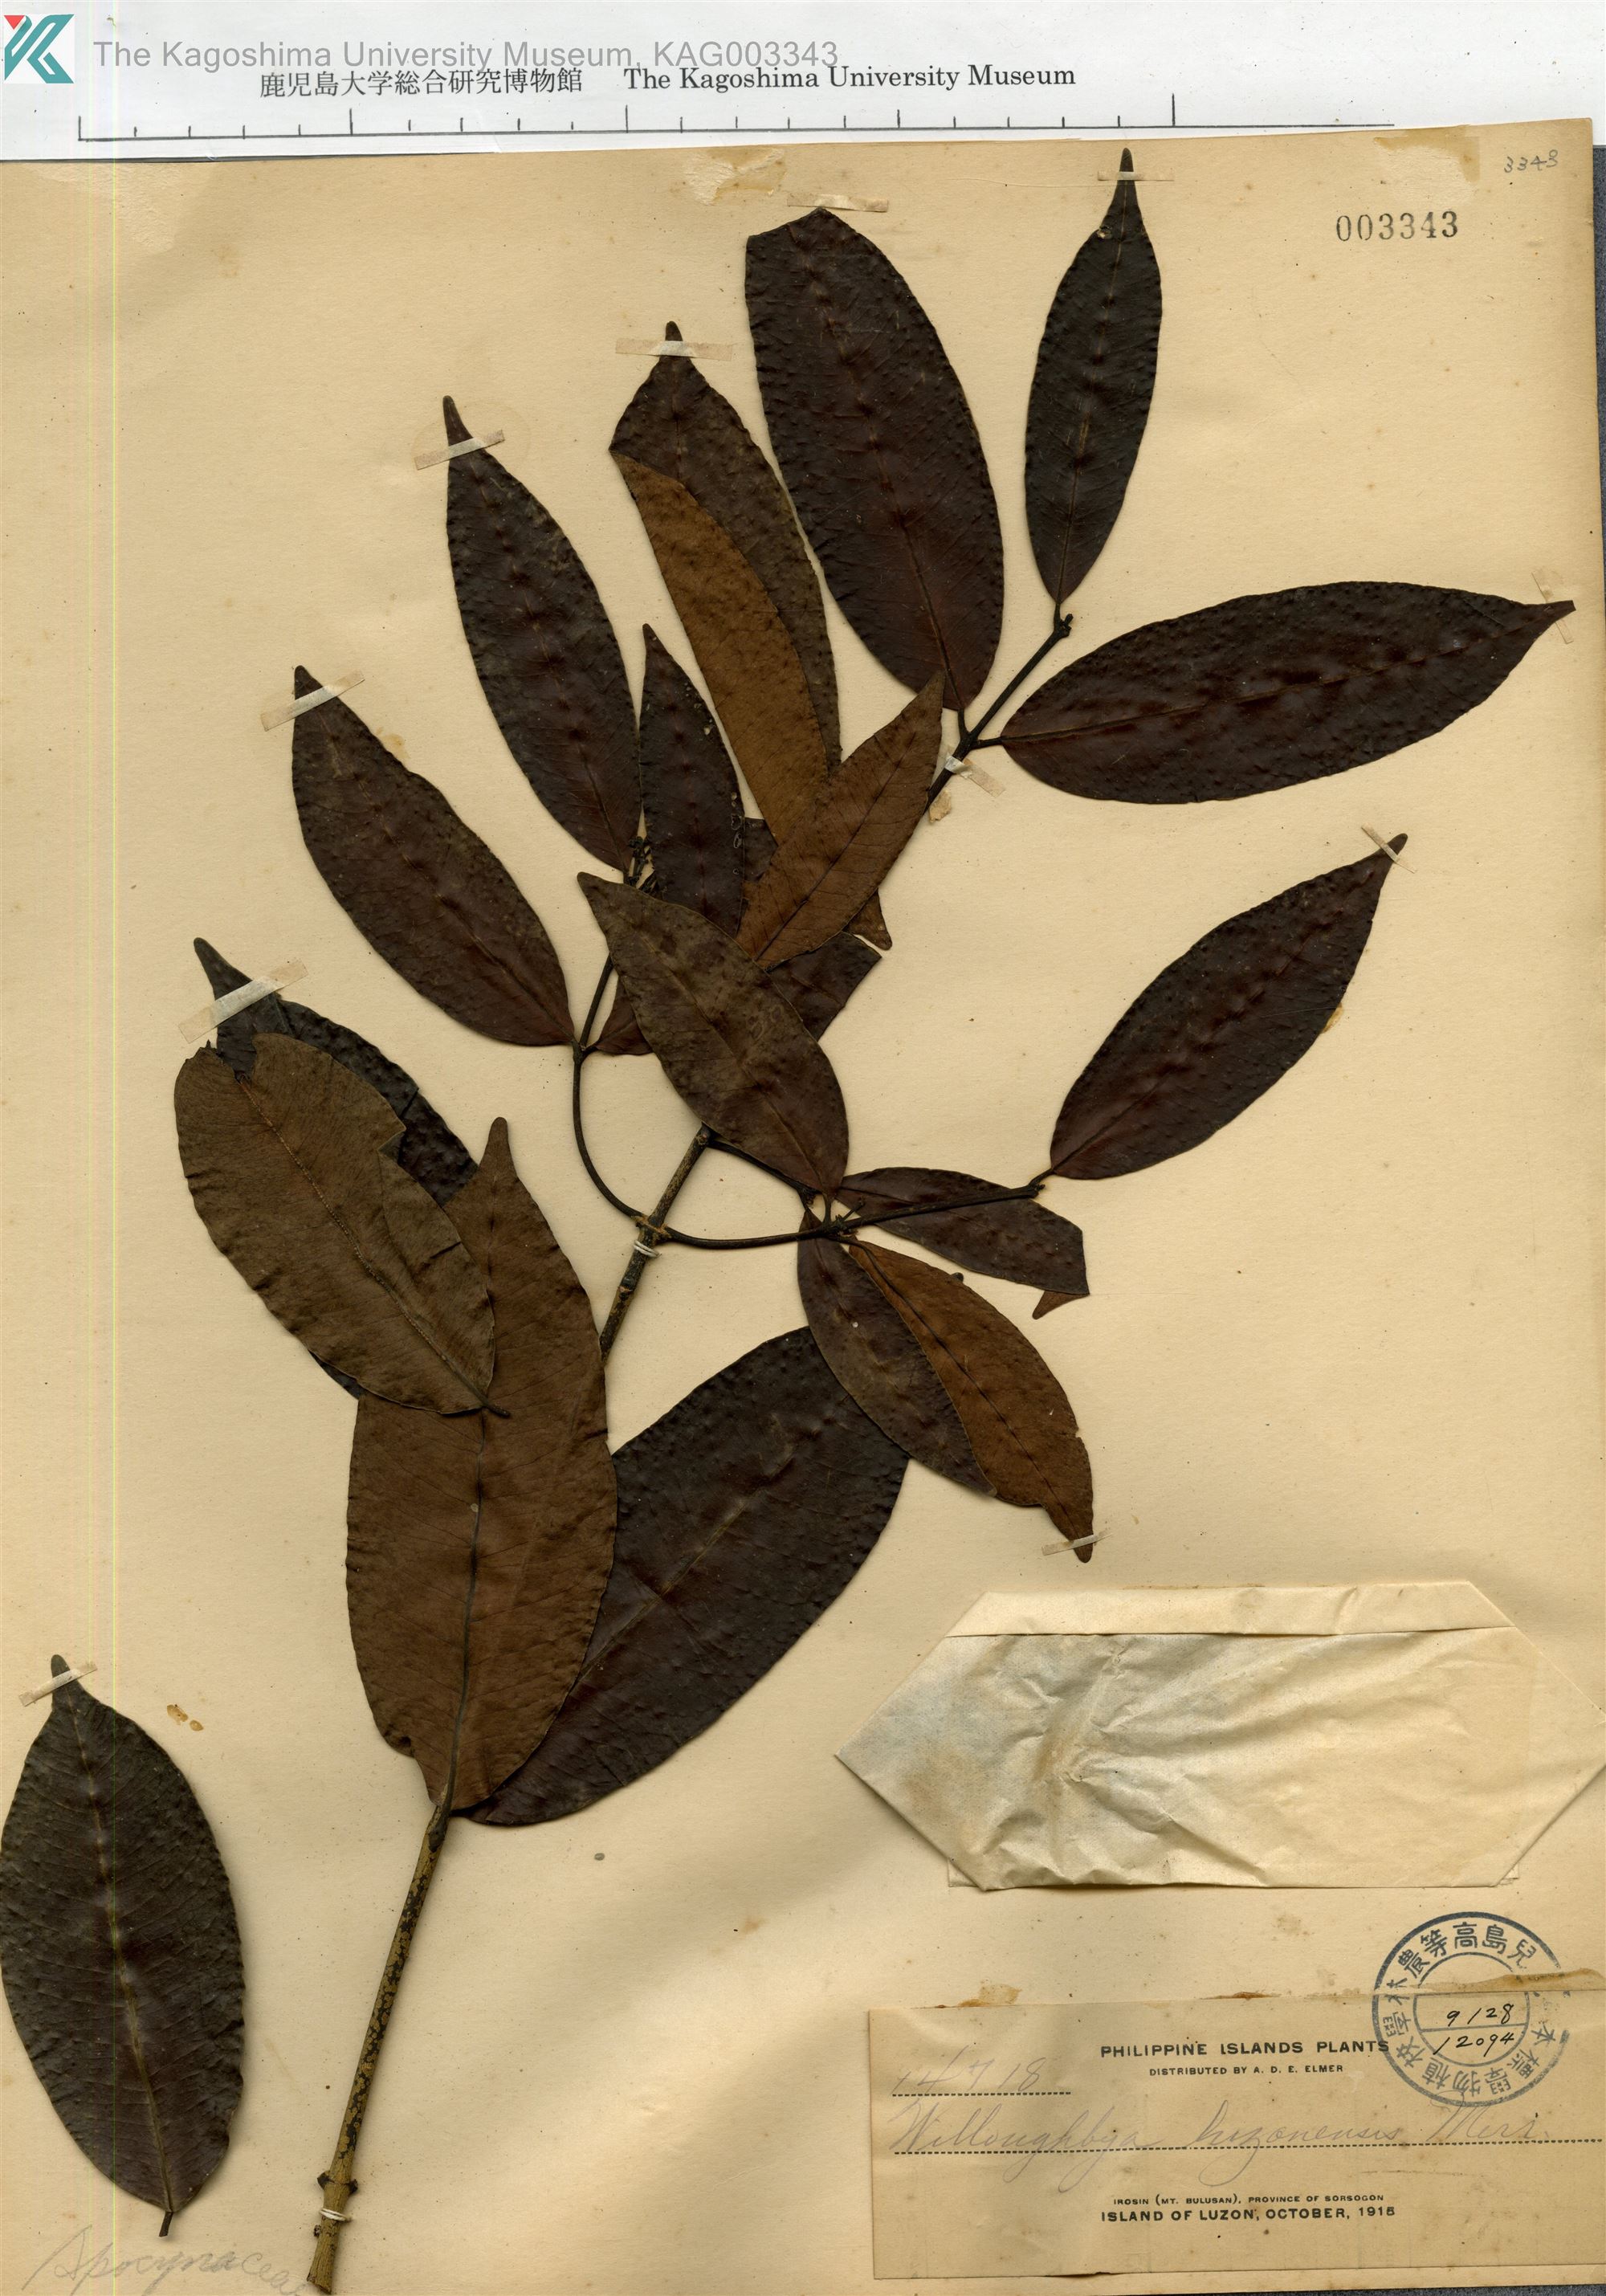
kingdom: Plantae
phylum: Tracheophyta
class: Magnoliopsida
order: Gentianales
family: Apocynaceae
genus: Willughbeia
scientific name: Willughbeia
